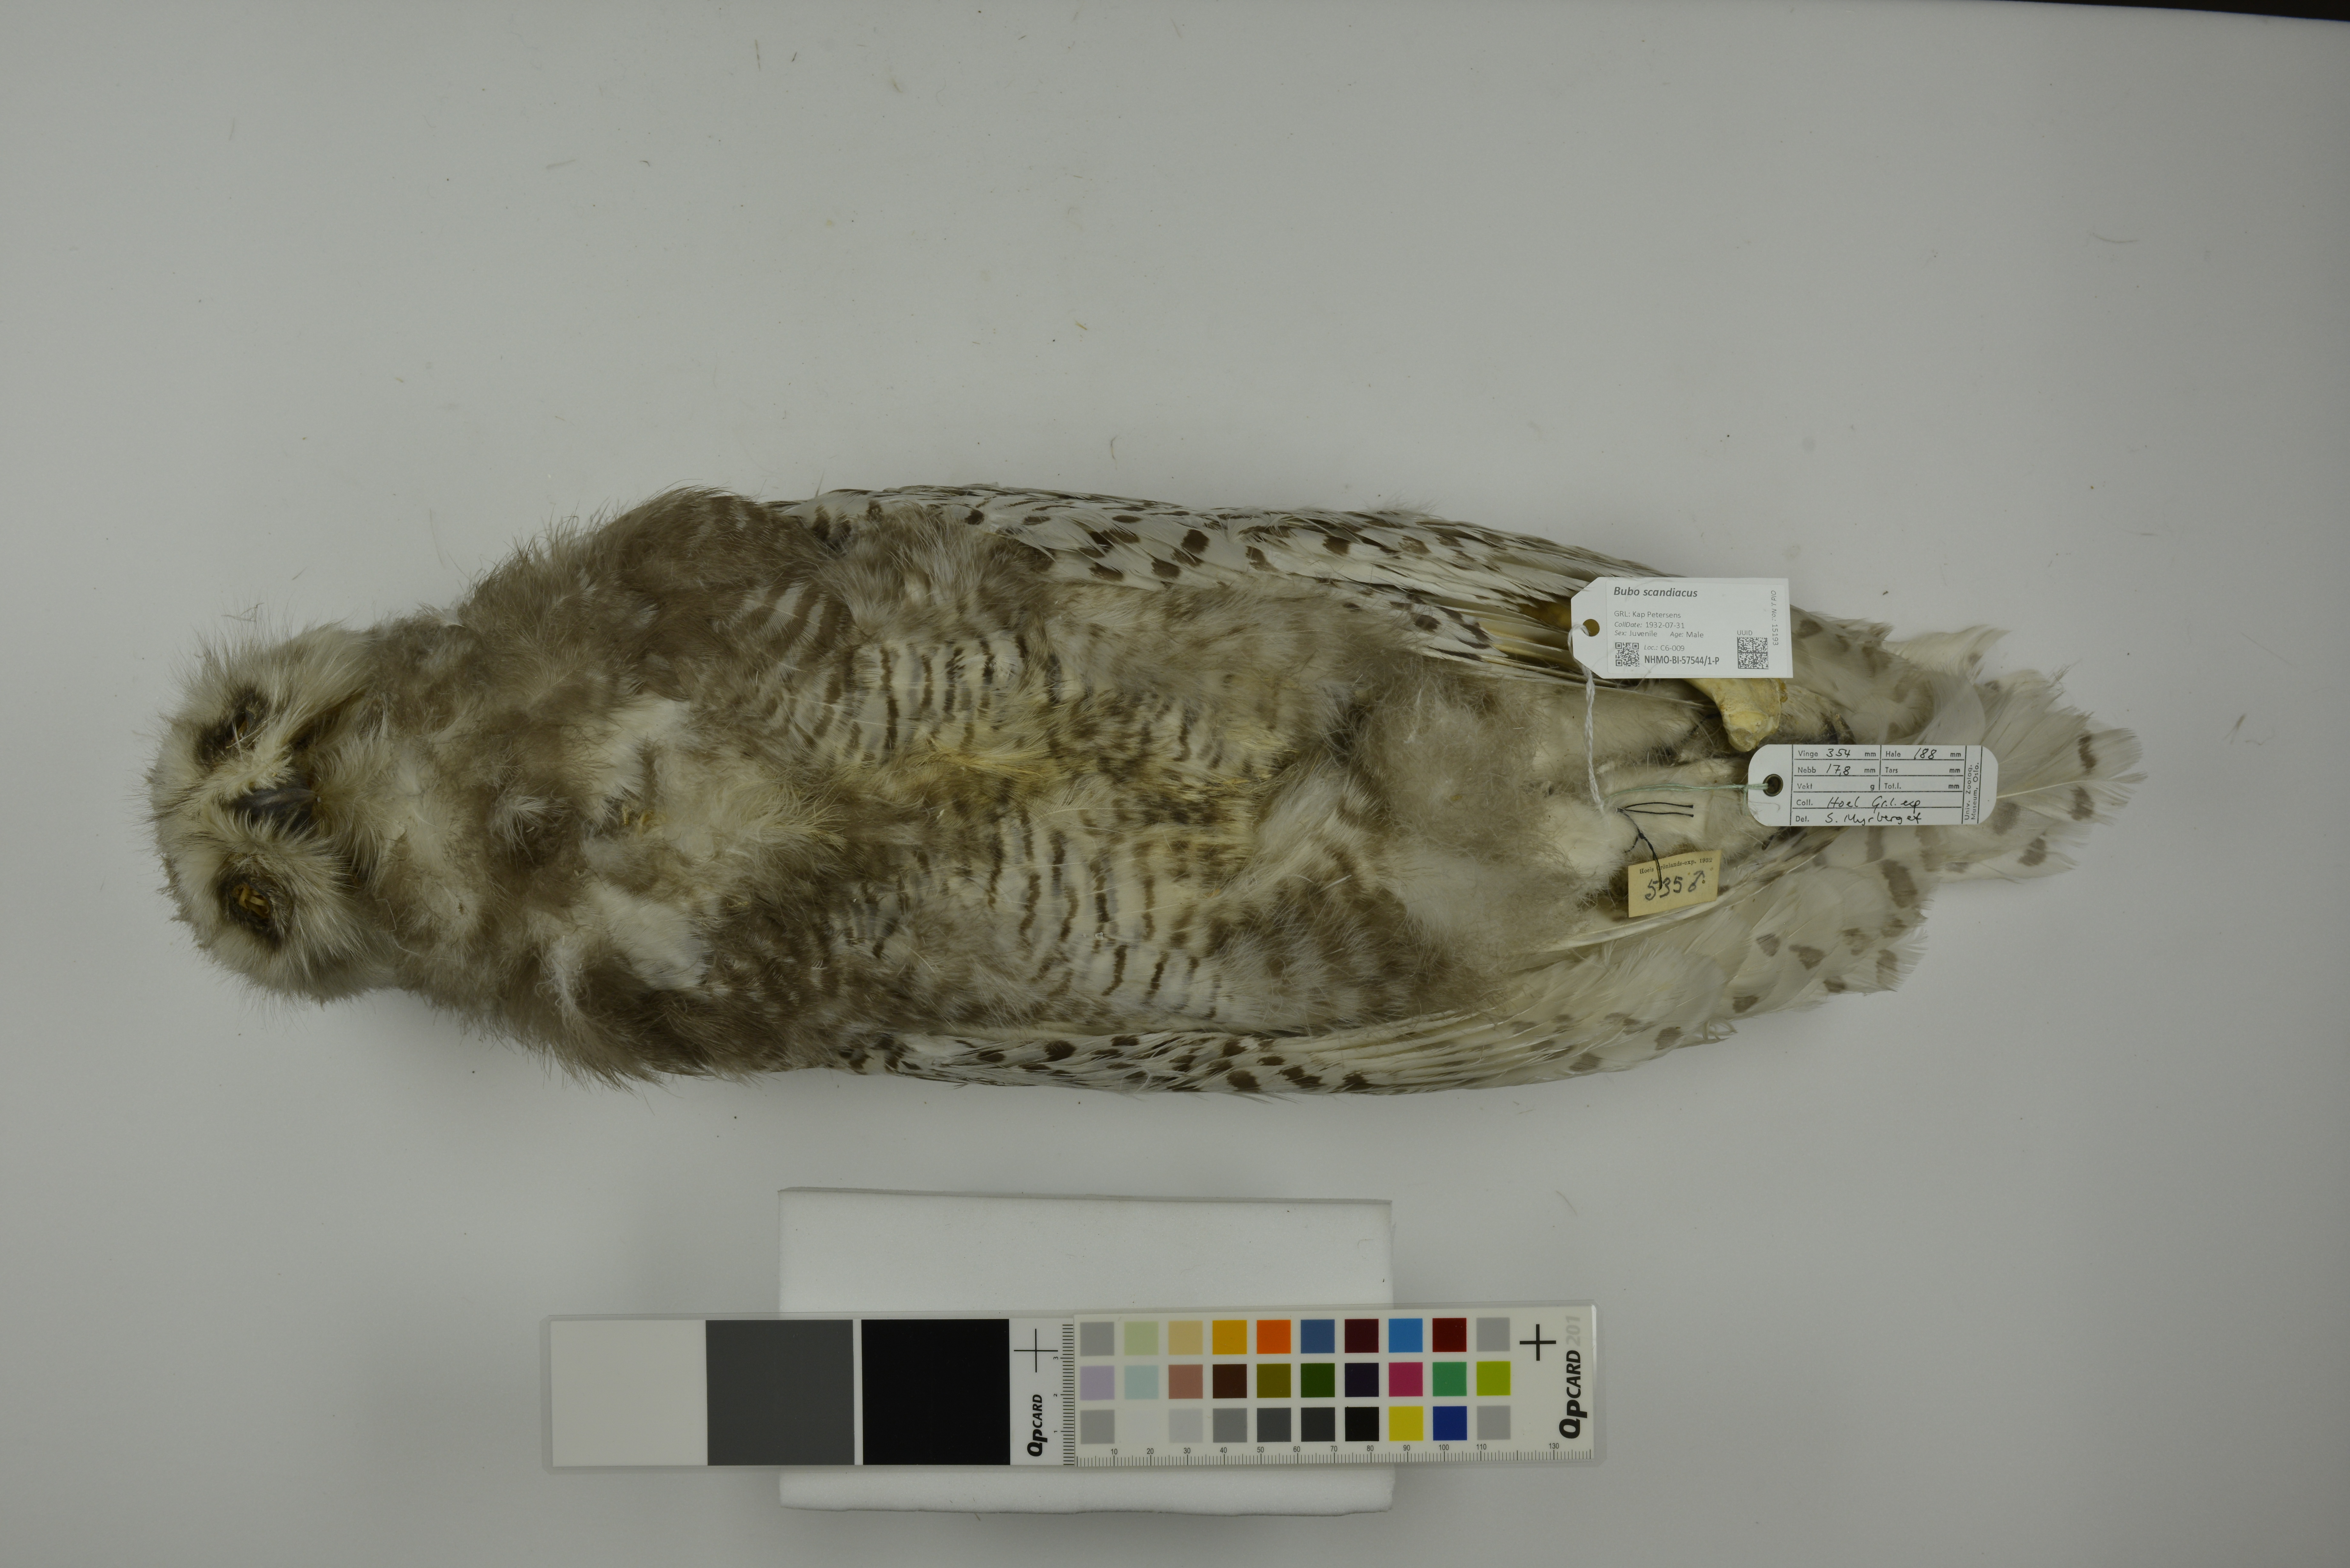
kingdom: Animalia
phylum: Chordata
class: Aves
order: Strigiformes
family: Strigidae
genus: Bubo
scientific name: Bubo scandiacus
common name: Snowy owl
